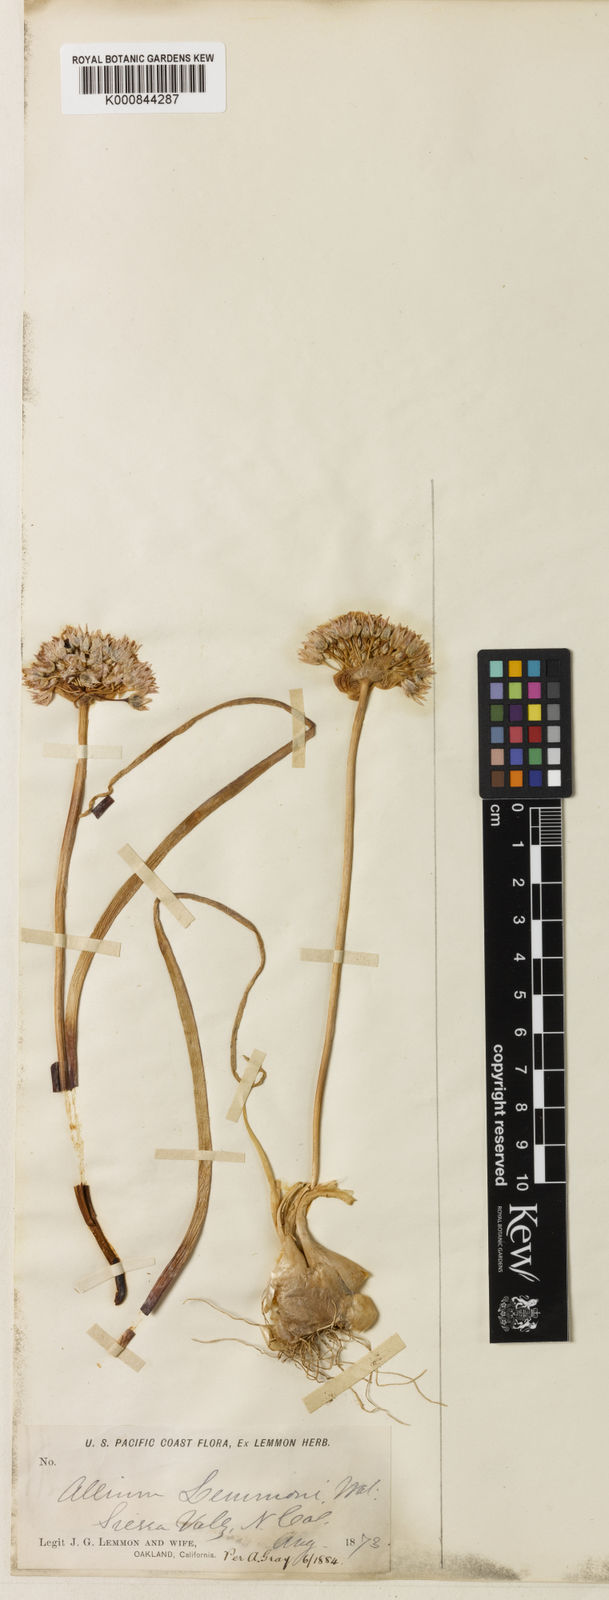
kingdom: Plantae
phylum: Tracheophyta
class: Liliopsida
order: Asparagales
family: Amaryllidaceae
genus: Allium
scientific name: Allium parvum
